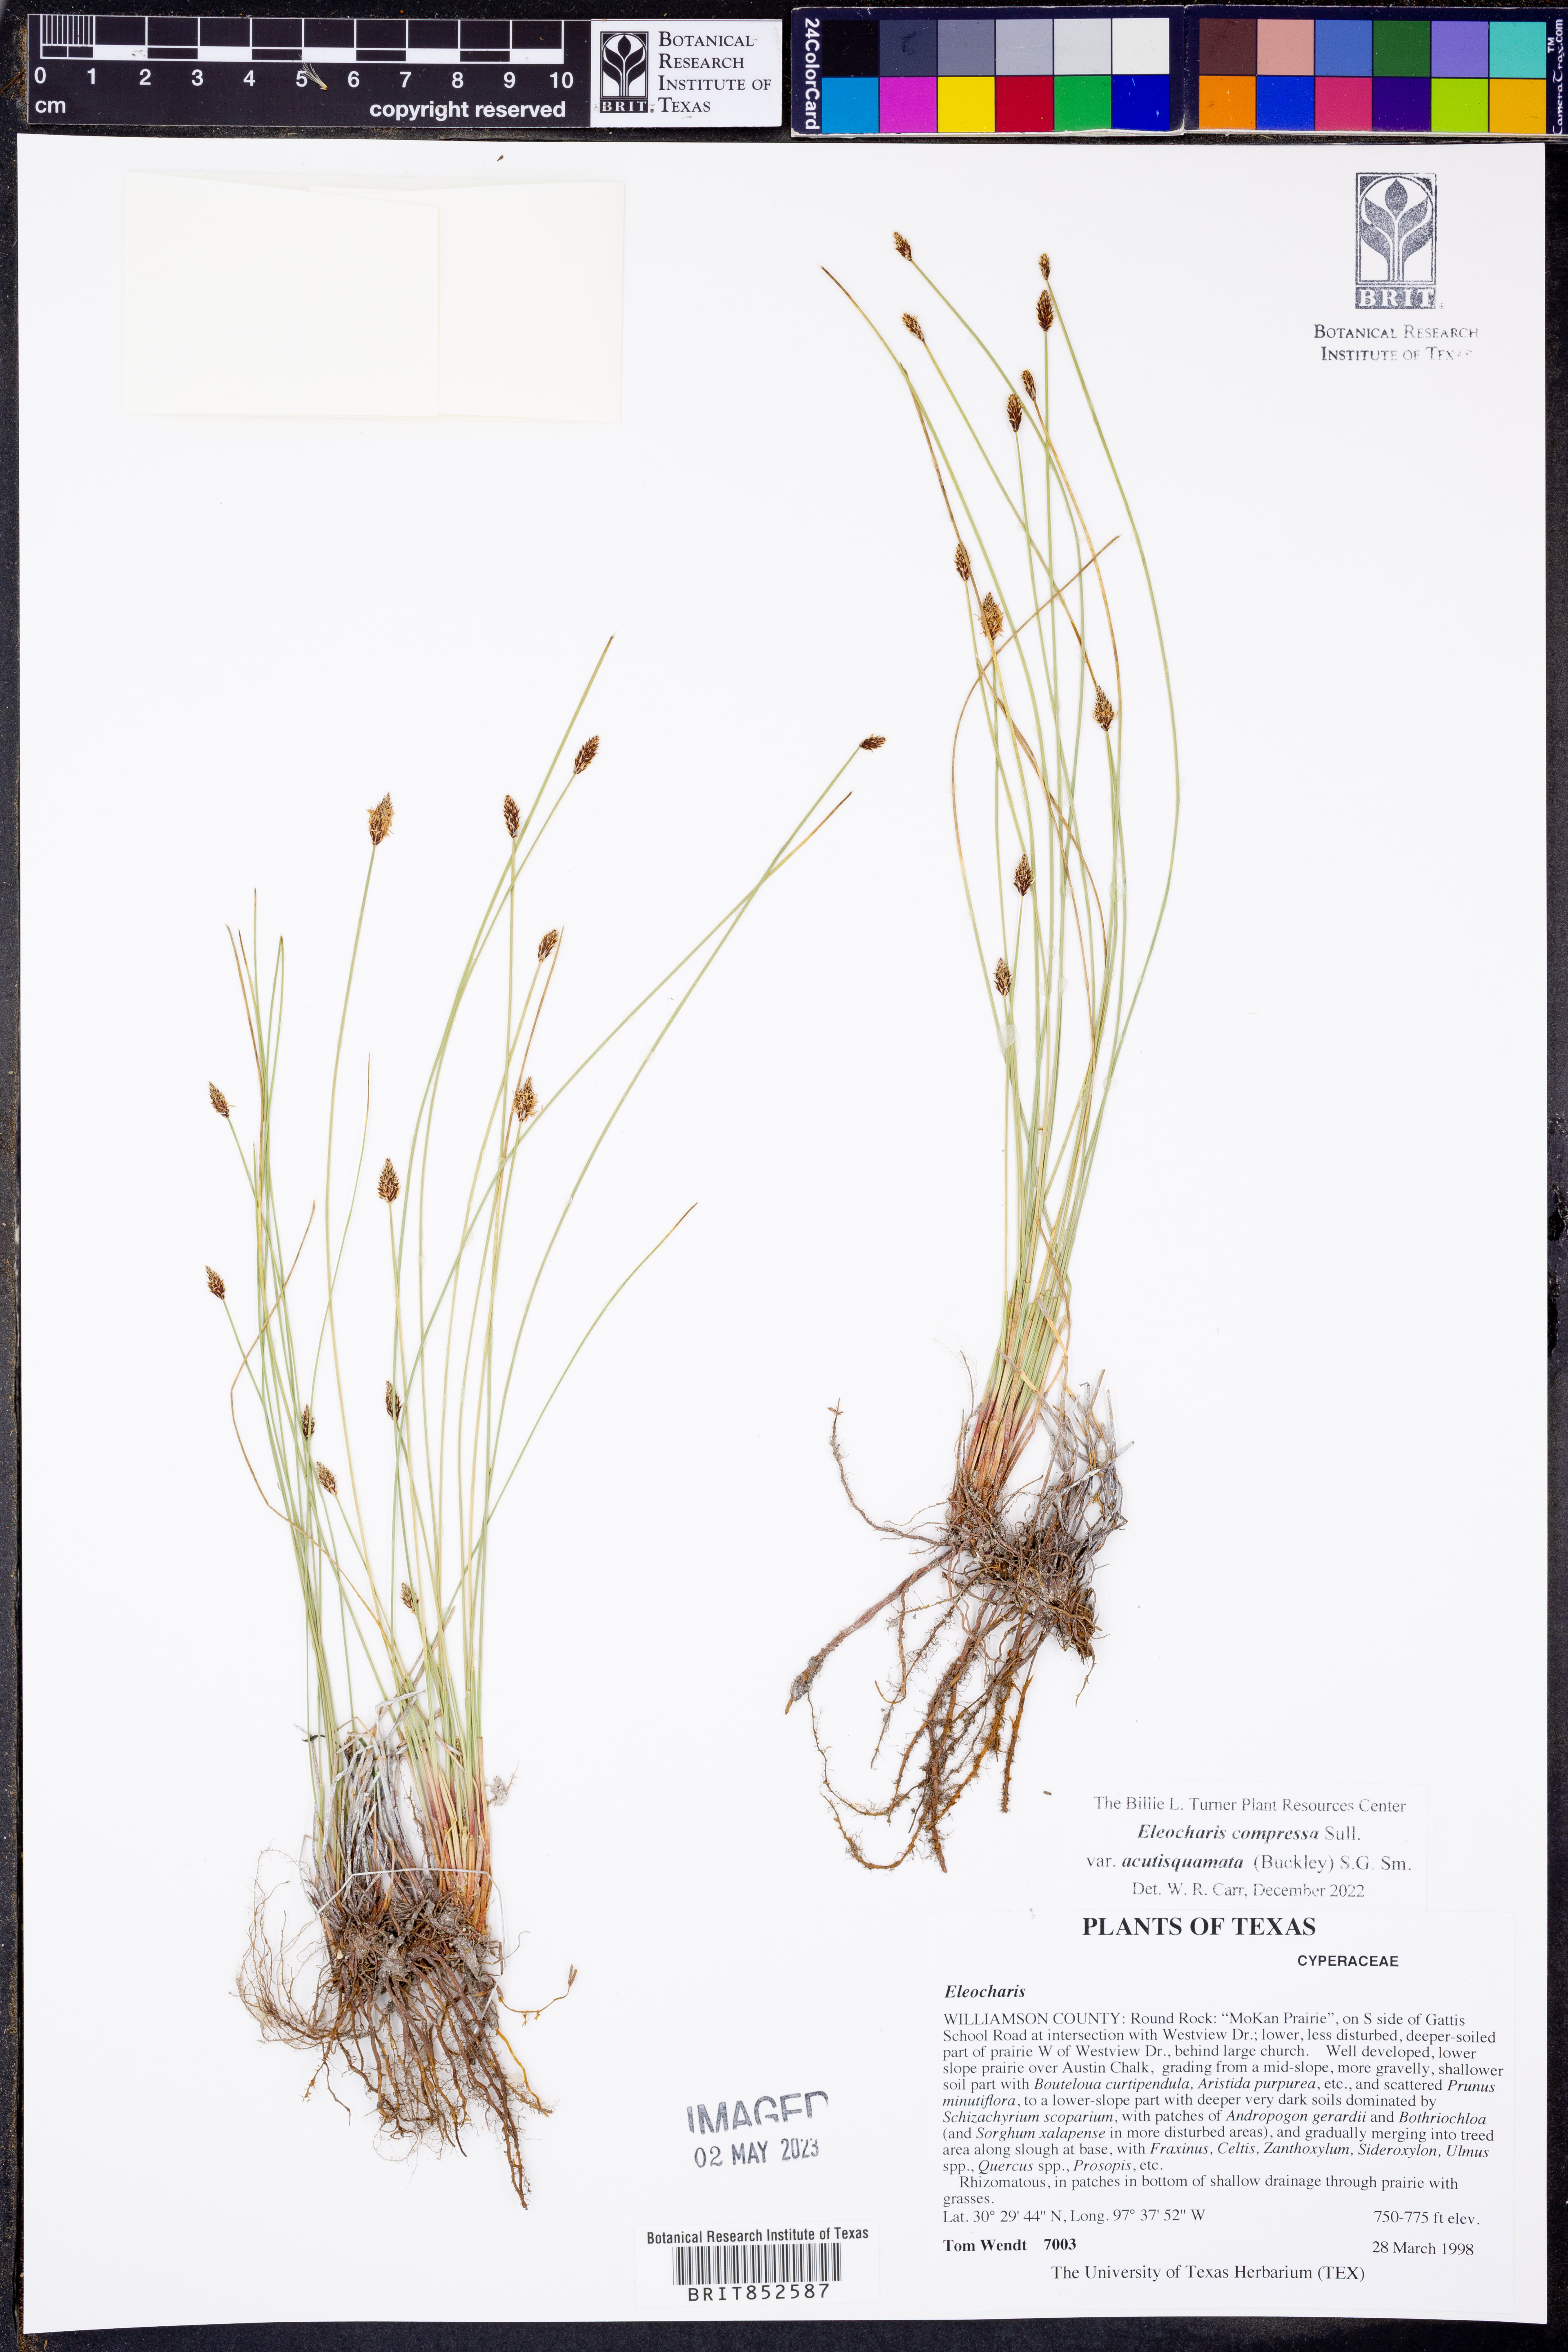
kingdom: Plantae
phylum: Tracheophyta
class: Liliopsida
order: Poales
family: Cyperaceae
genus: Eleocharis
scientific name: Eleocharis compressa
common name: Flat-stem spike-rush
